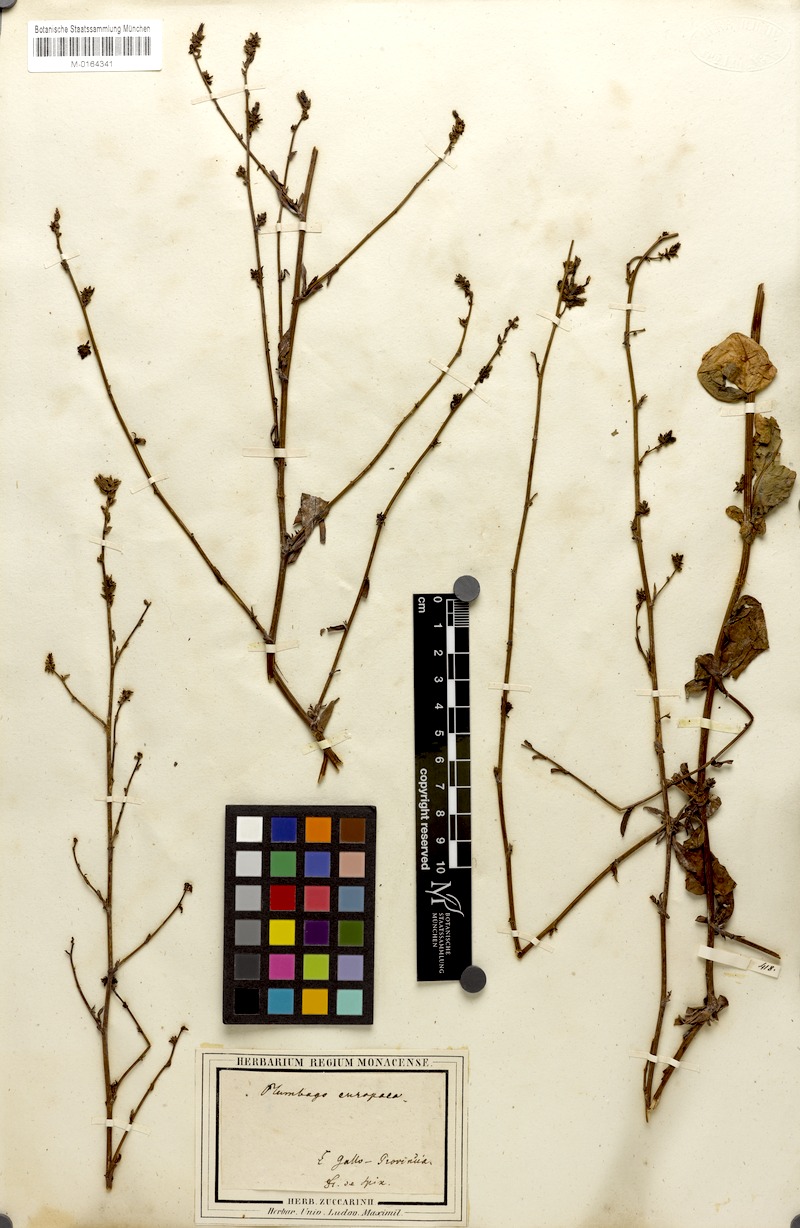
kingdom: Plantae
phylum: Tracheophyta
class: Magnoliopsida
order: Caryophyllales
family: Plumbaginaceae
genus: Plumbago
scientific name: Plumbago europaea
